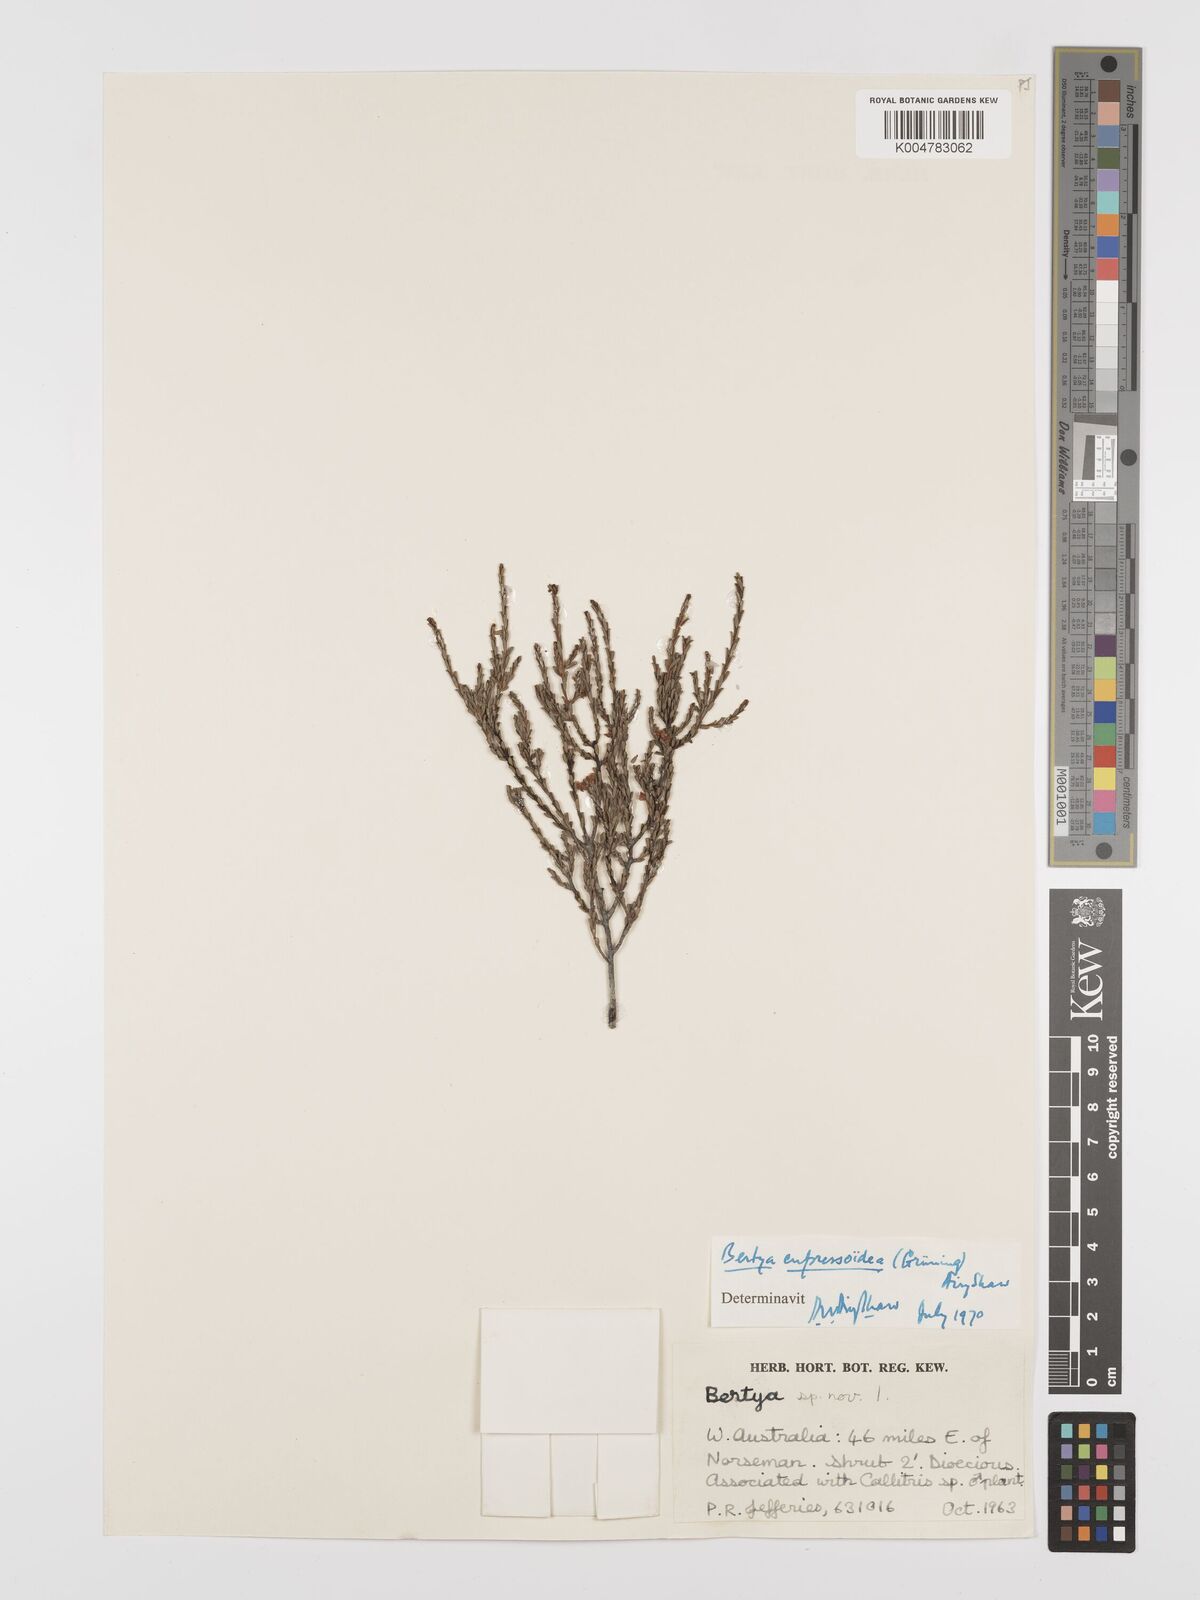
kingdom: Plantae
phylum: Tracheophyta
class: Magnoliopsida
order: Malpighiales
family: Euphorbiaceae
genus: Bertya
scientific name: Bertya virgata
